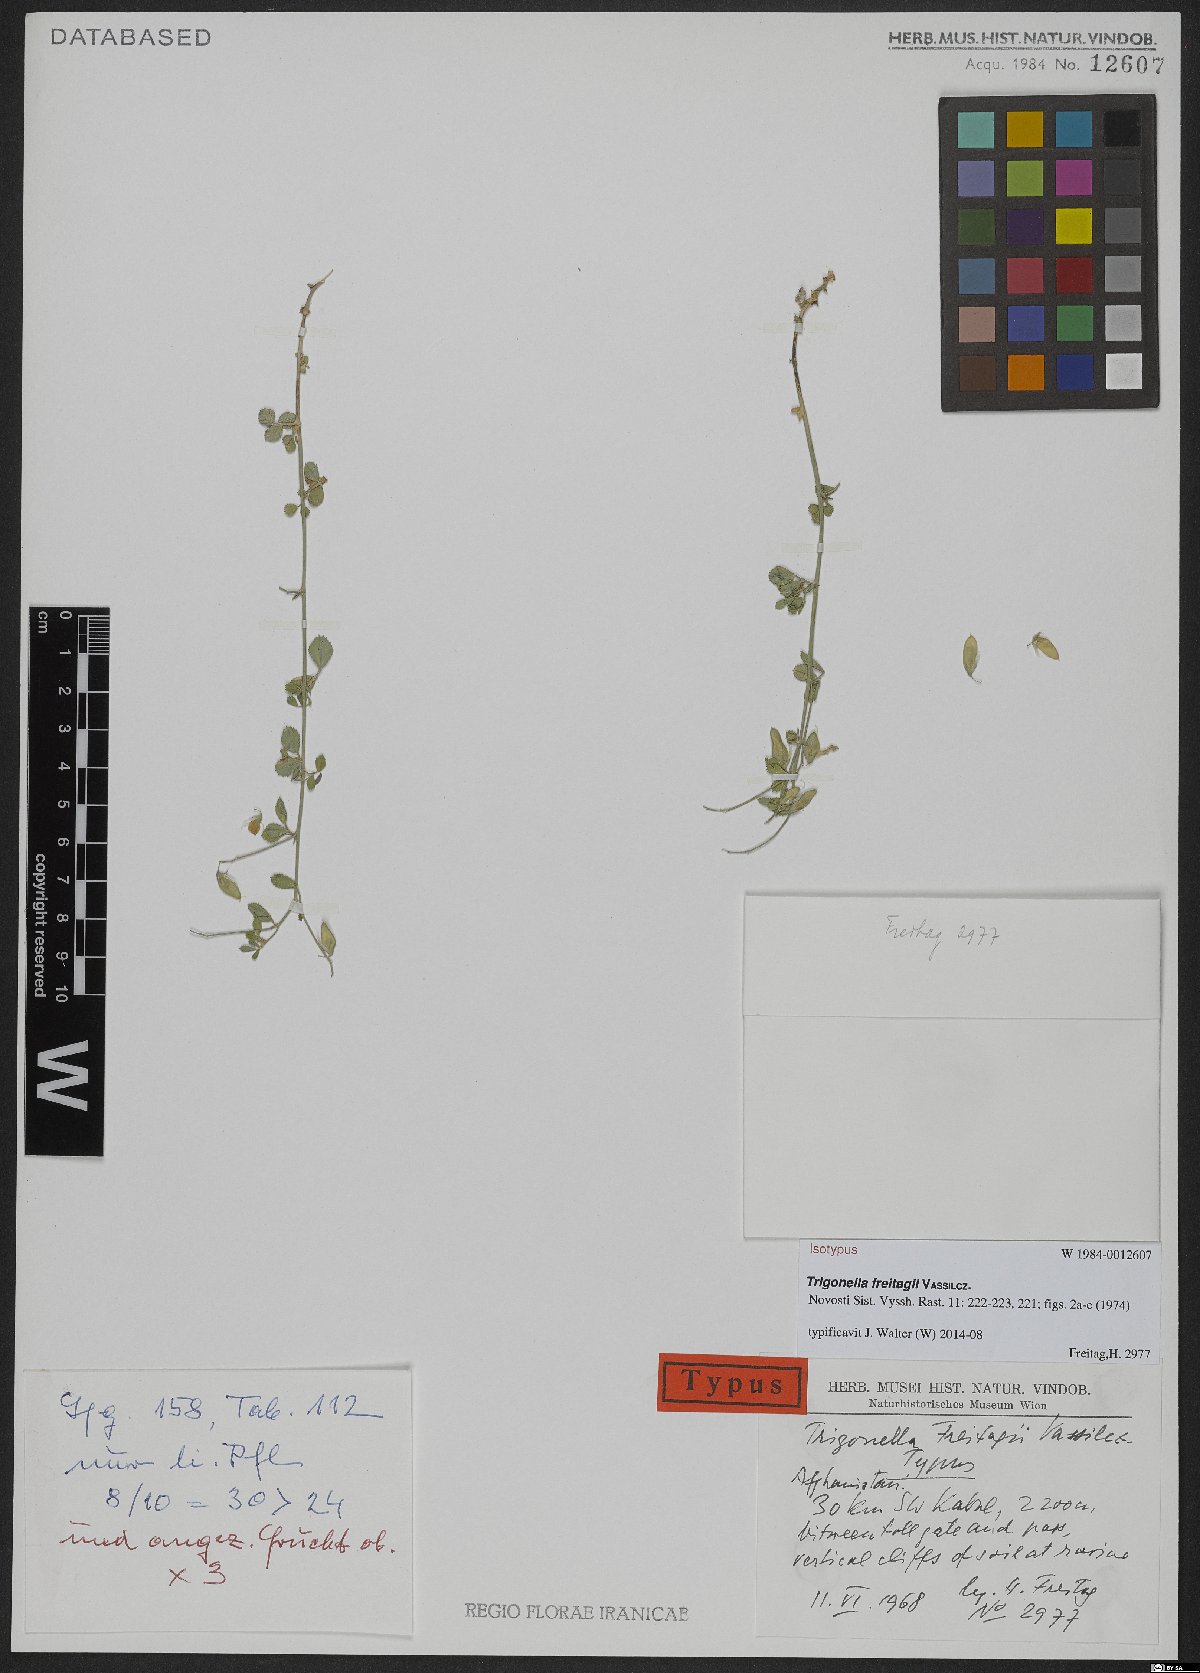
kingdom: Plantae
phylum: Tracheophyta
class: Magnoliopsida
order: Fabales
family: Fabaceae
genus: Trigonella
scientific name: Trigonella freitagii
